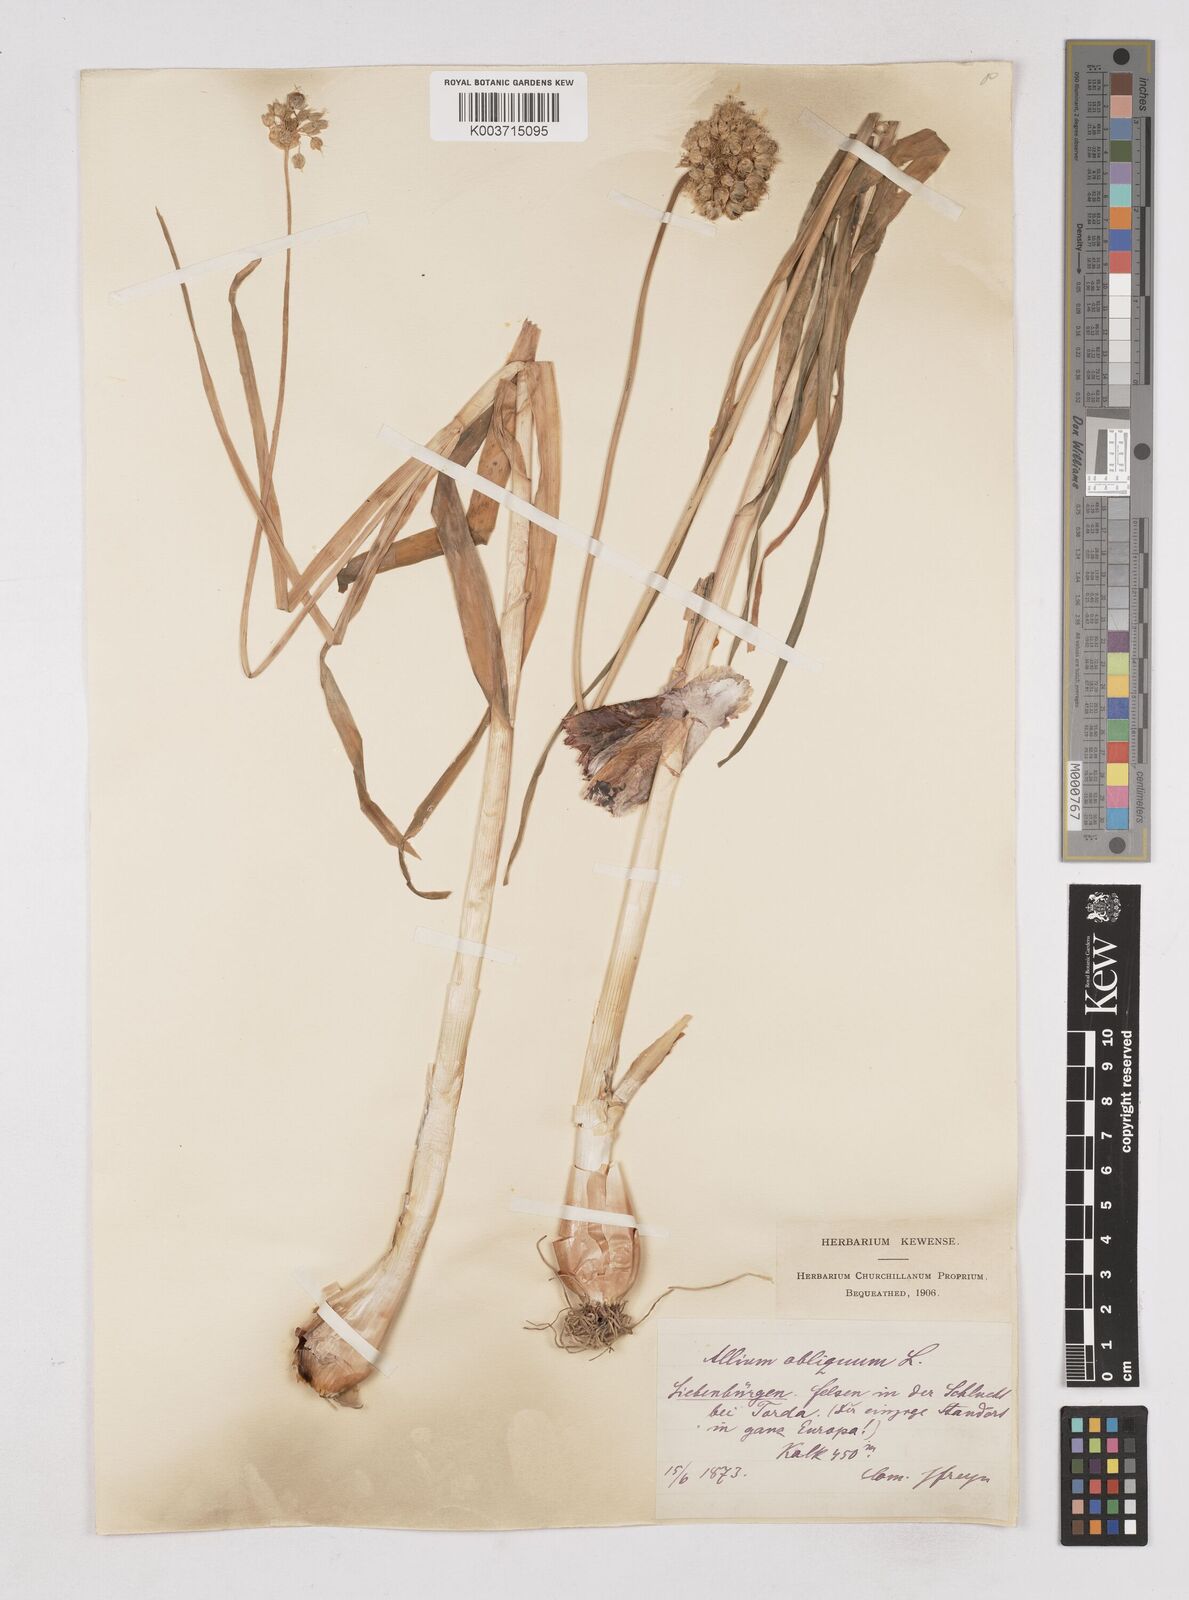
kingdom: Plantae
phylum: Tracheophyta
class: Liliopsida
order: Asparagales
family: Amaryllidaceae
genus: Allium
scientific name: Allium obliquum
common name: Oblique onion
